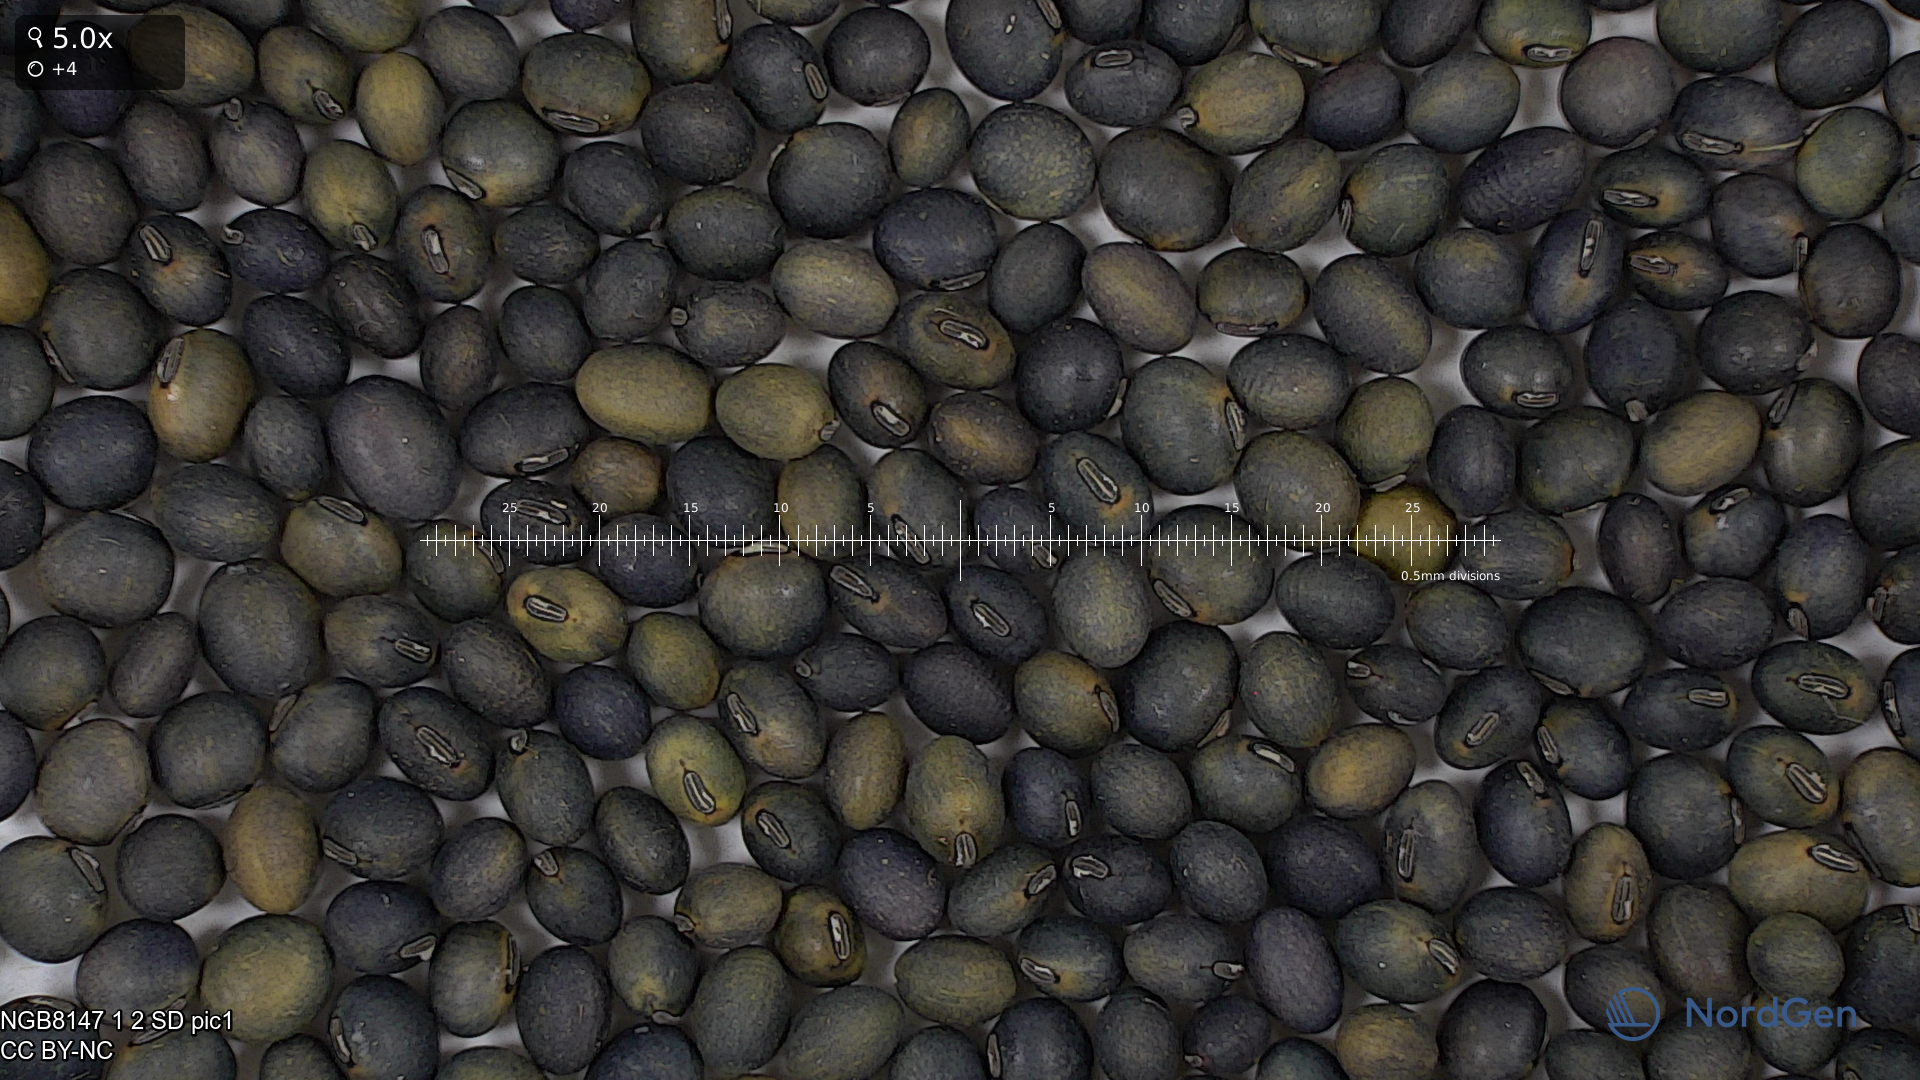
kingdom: Plantae
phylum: Tracheophyta
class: Magnoliopsida
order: Fabales
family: Fabaceae
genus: Glycine
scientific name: Glycine max
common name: Soya-bean
